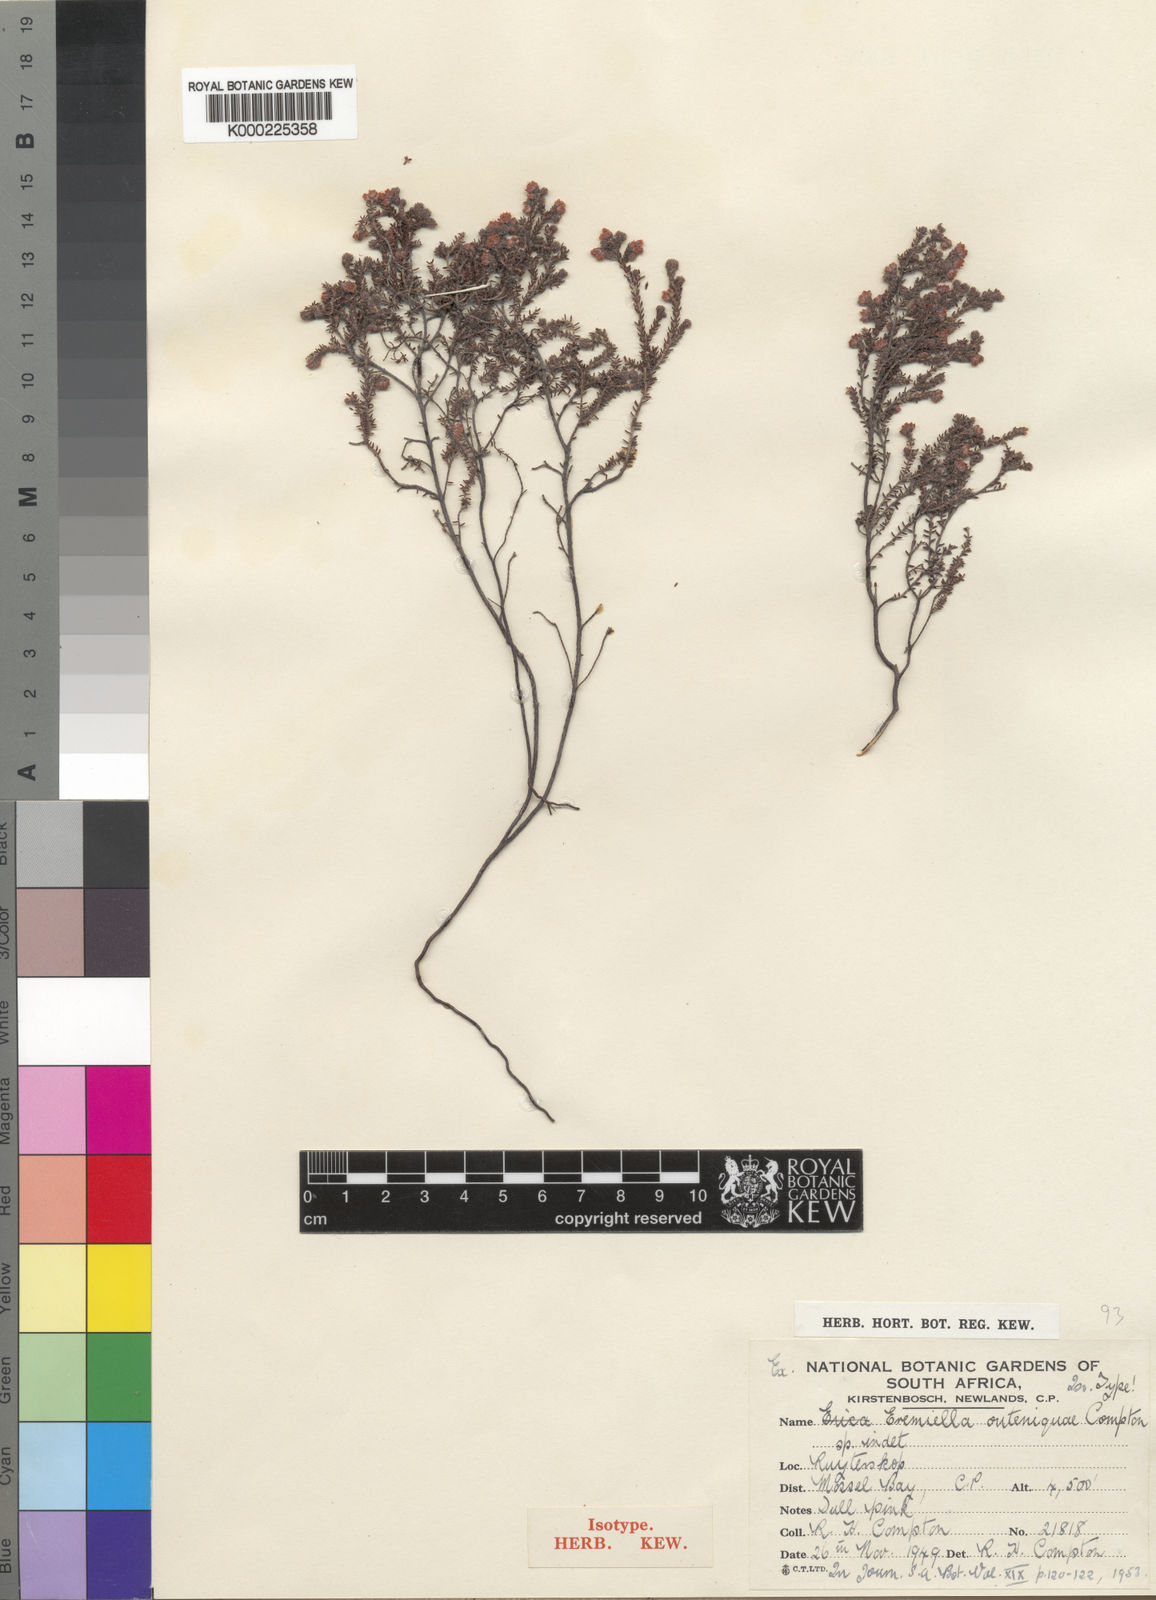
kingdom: Plantae
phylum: Tracheophyta
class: Magnoliopsida
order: Ericales
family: Ericaceae
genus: Erica
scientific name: Erica outeniquae
